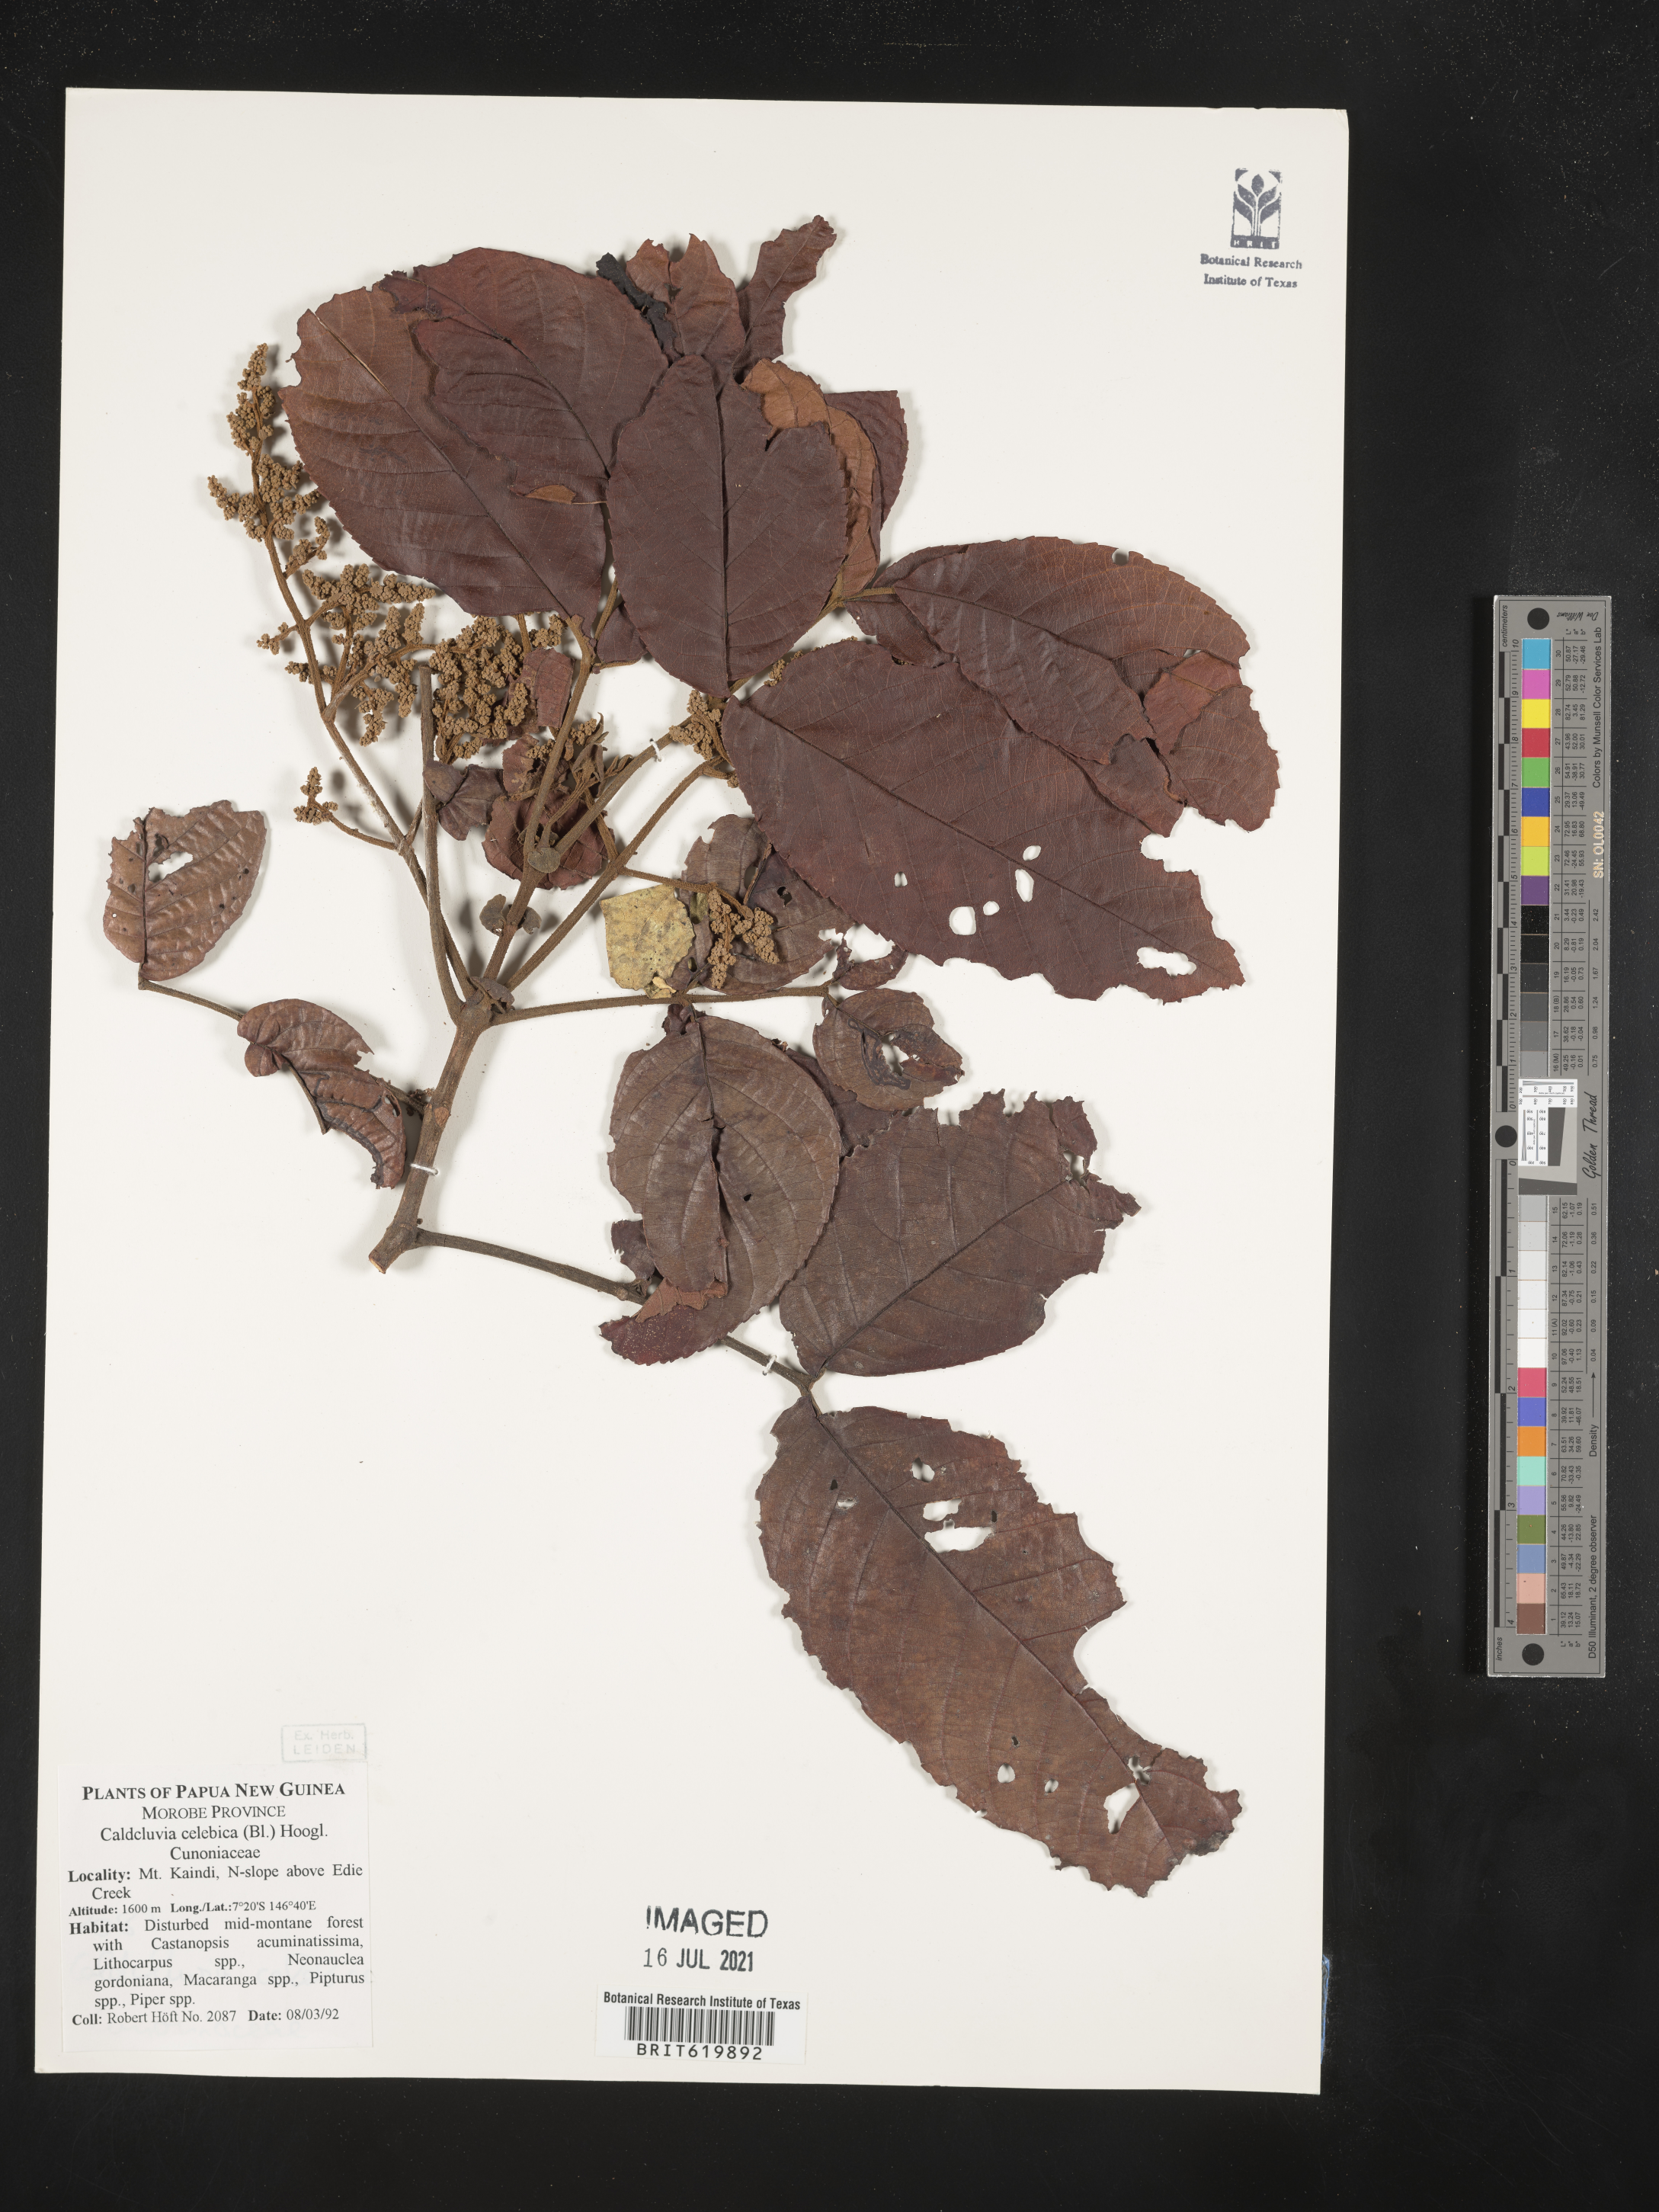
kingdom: Plantae
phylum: Tracheophyta
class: Magnoliopsida
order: Oxalidales
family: Cunoniaceae
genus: Ackama
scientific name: Ackama celebica
